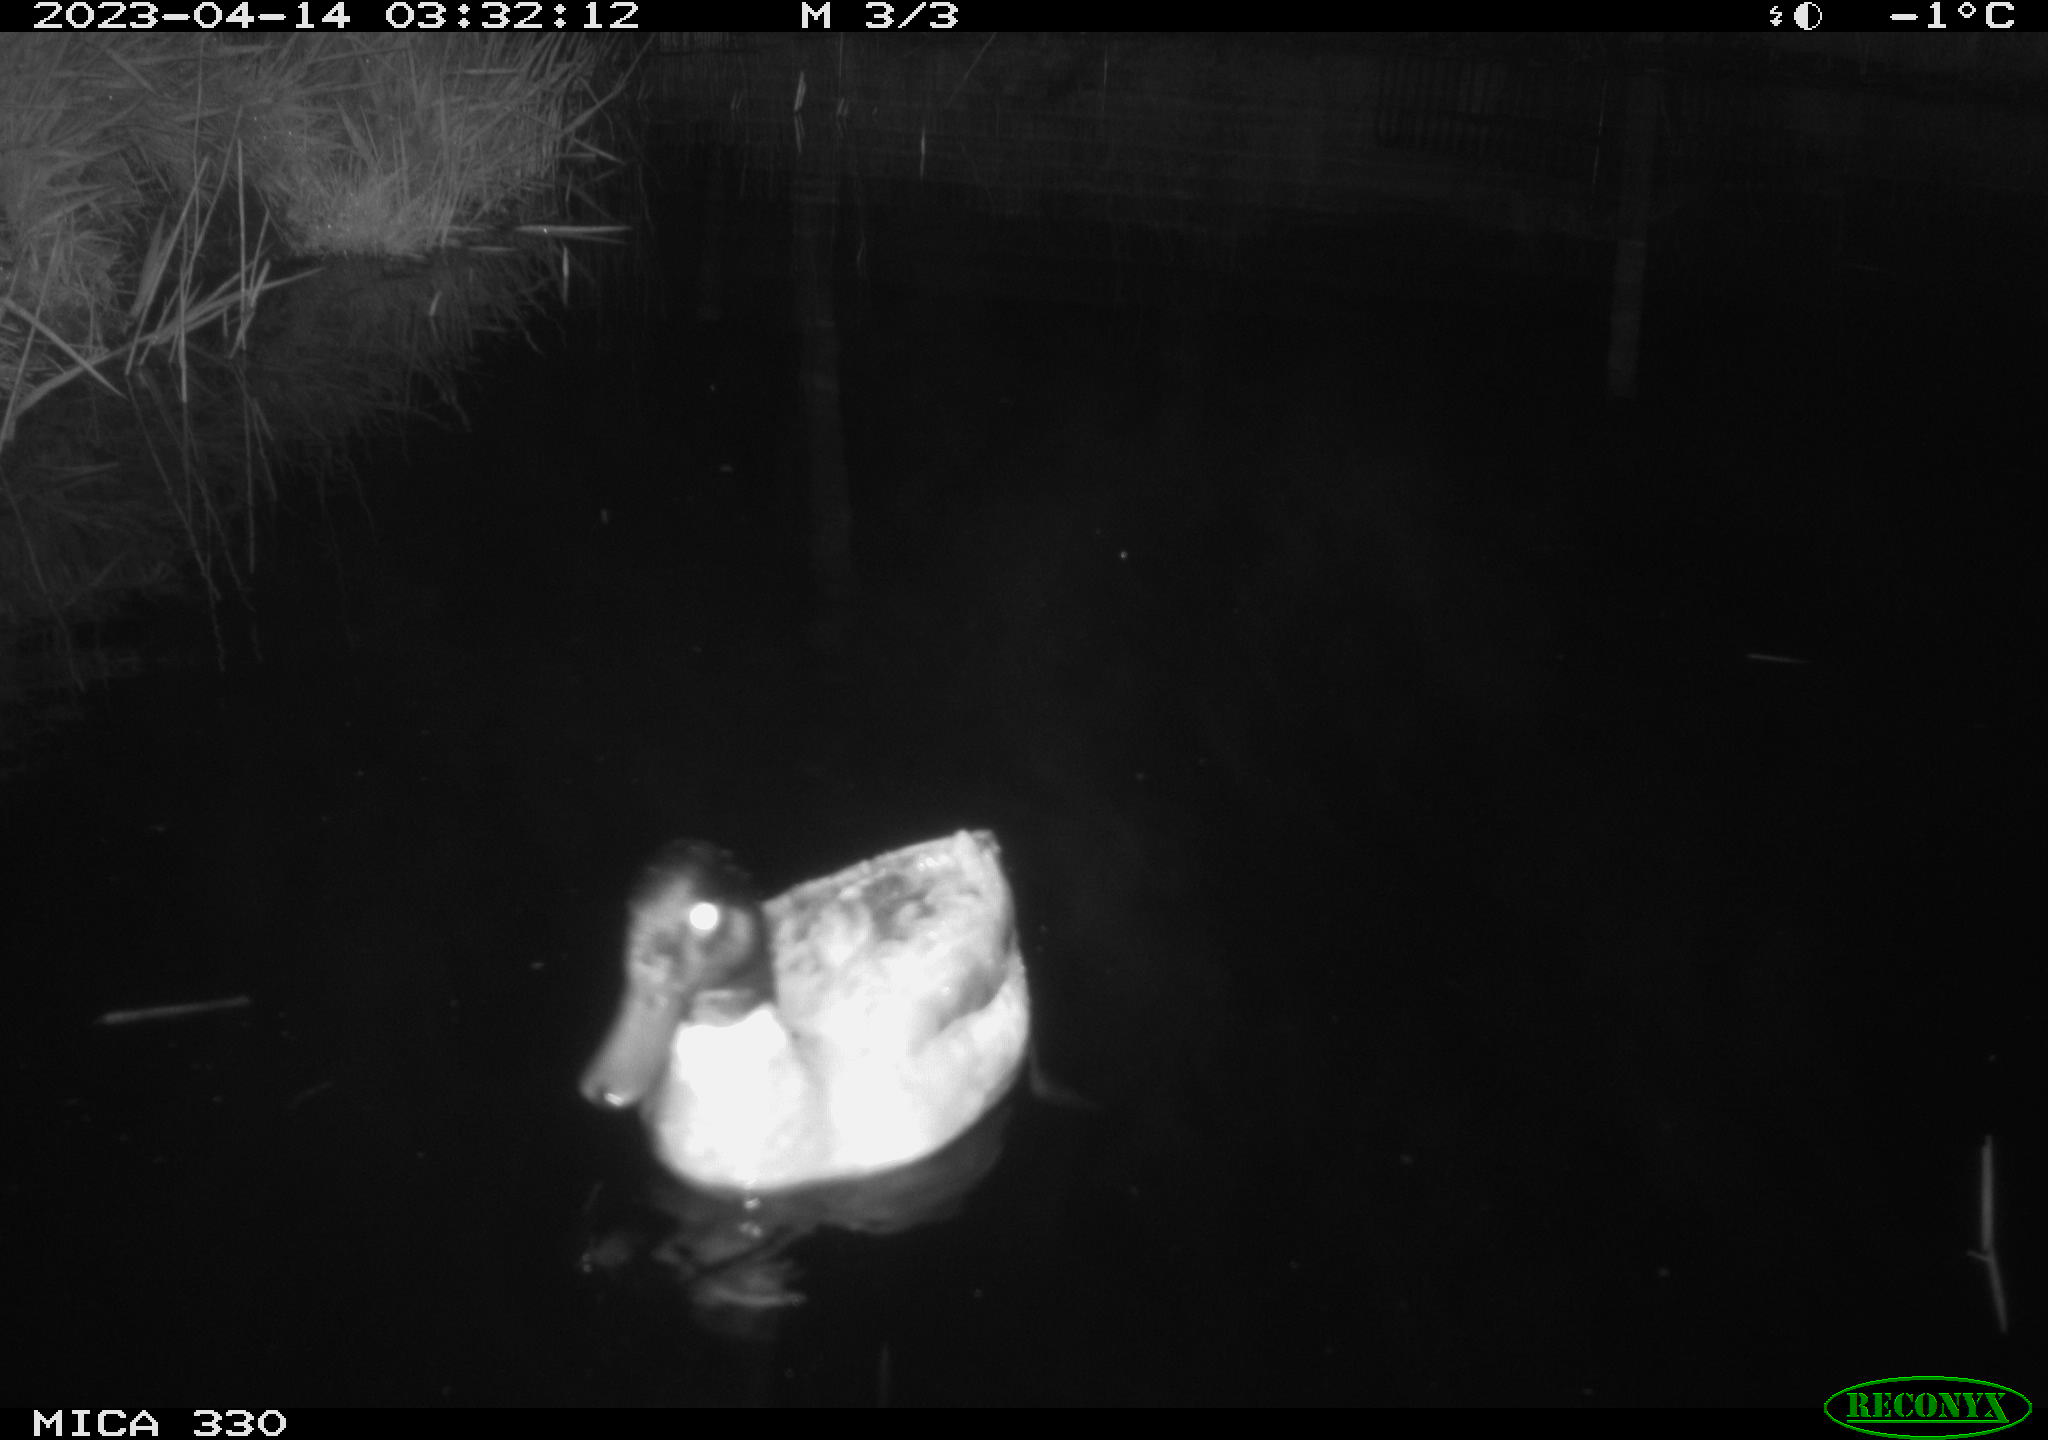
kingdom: Animalia
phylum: Chordata
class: Aves
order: Anseriformes
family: Anatidae
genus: Anas
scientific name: Anas platyrhynchos
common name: Mallard
